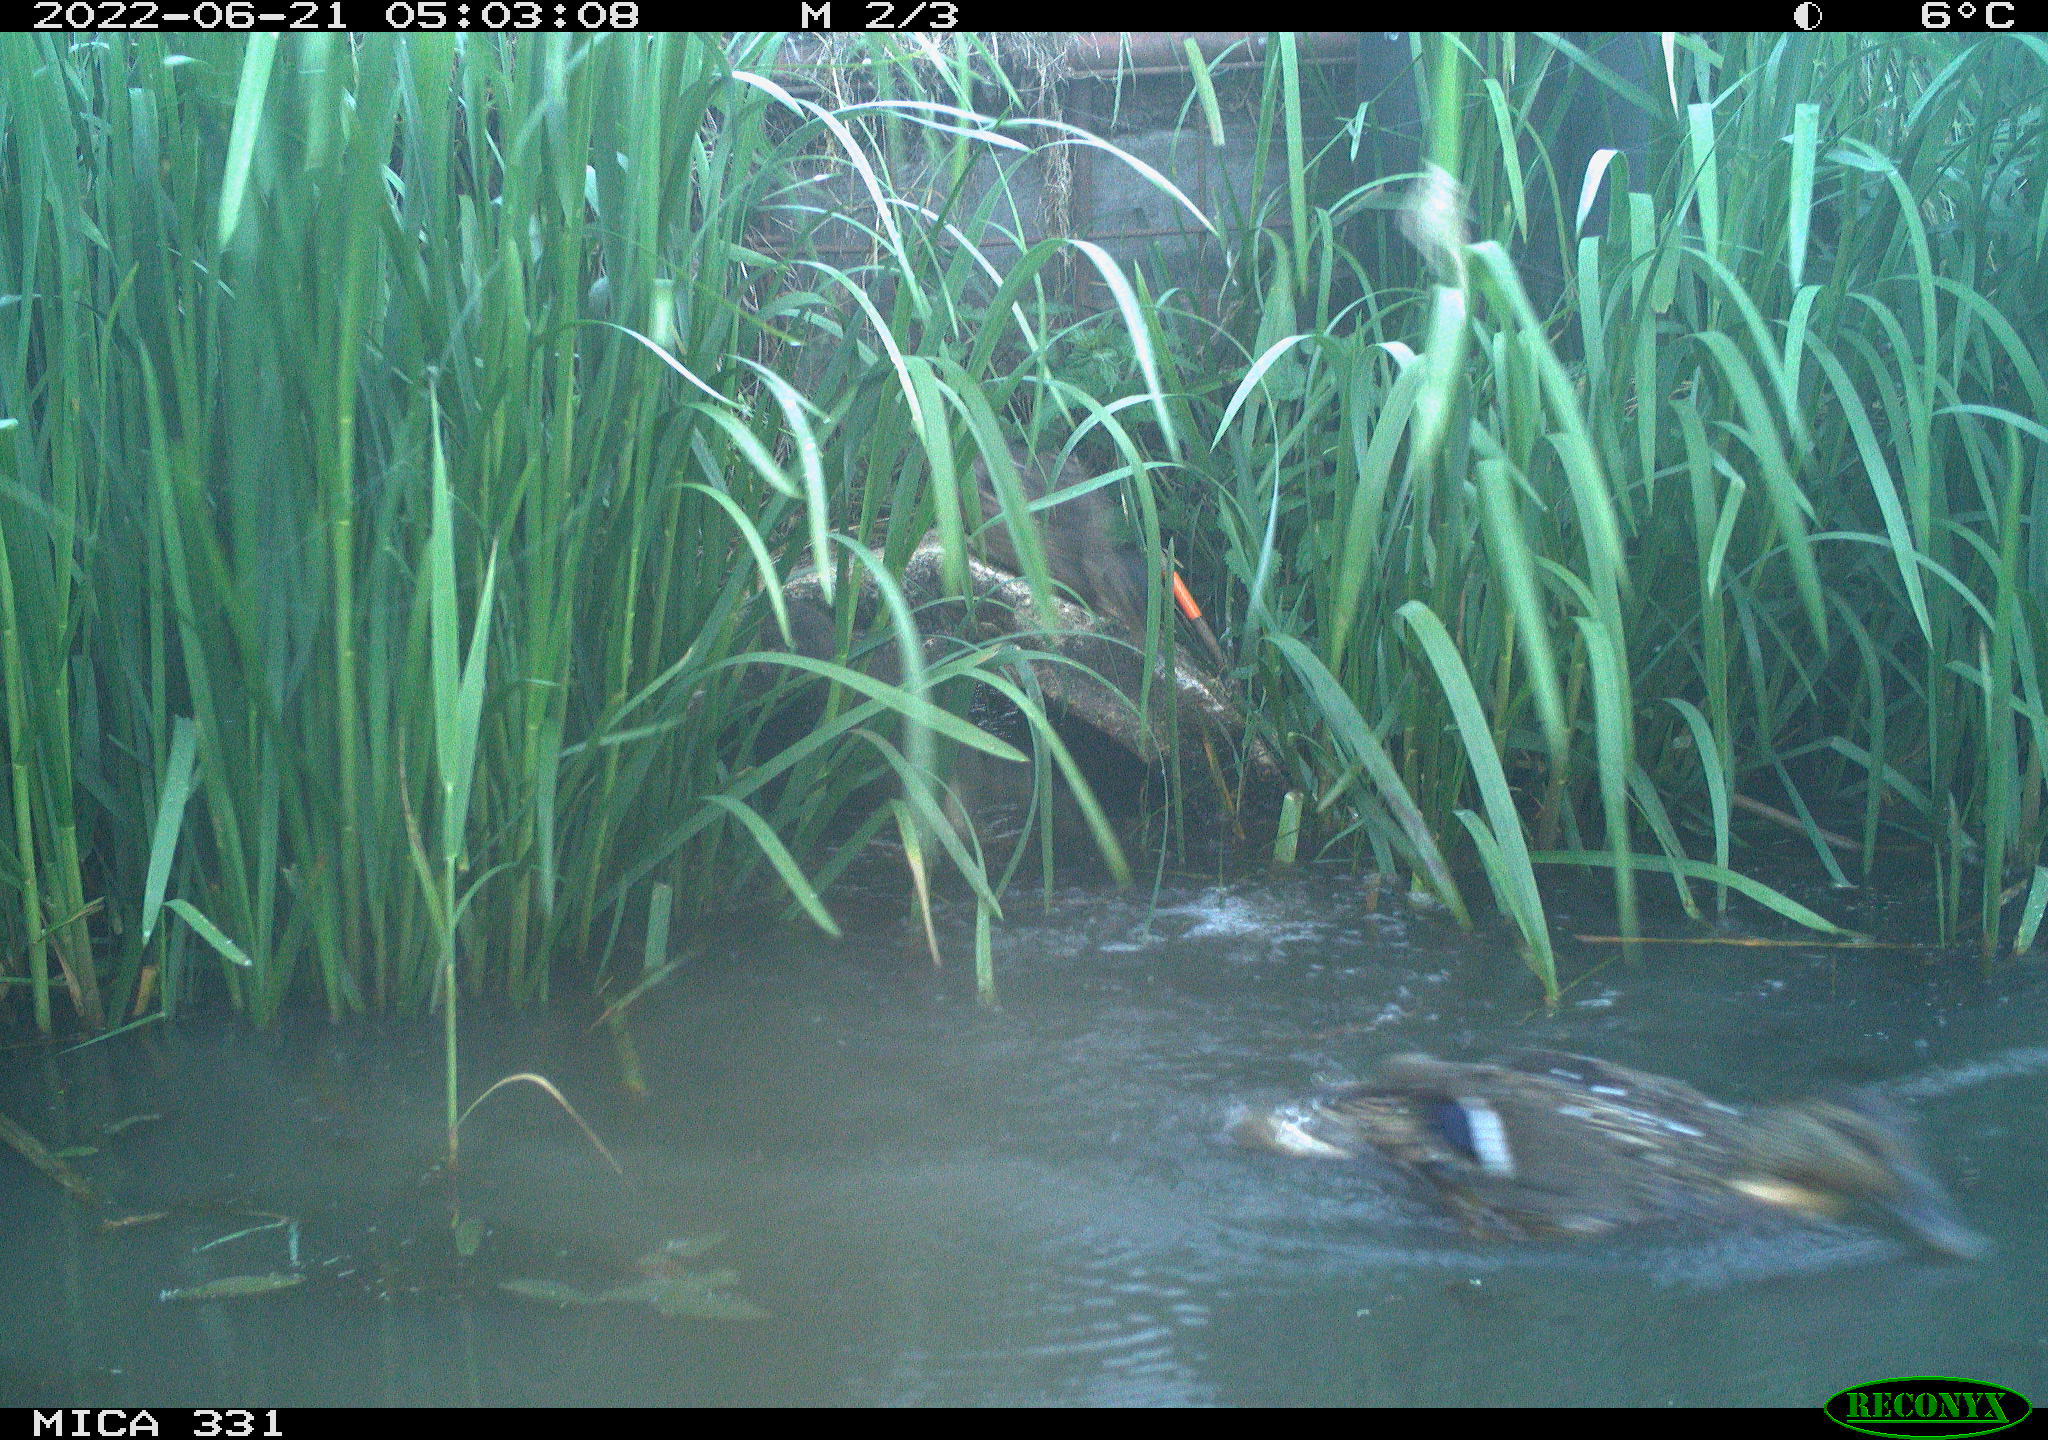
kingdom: Animalia
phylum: Chordata
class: Aves
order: Anseriformes
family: Anatidae
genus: Anas
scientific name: Anas platyrhynchos
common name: Mallard
